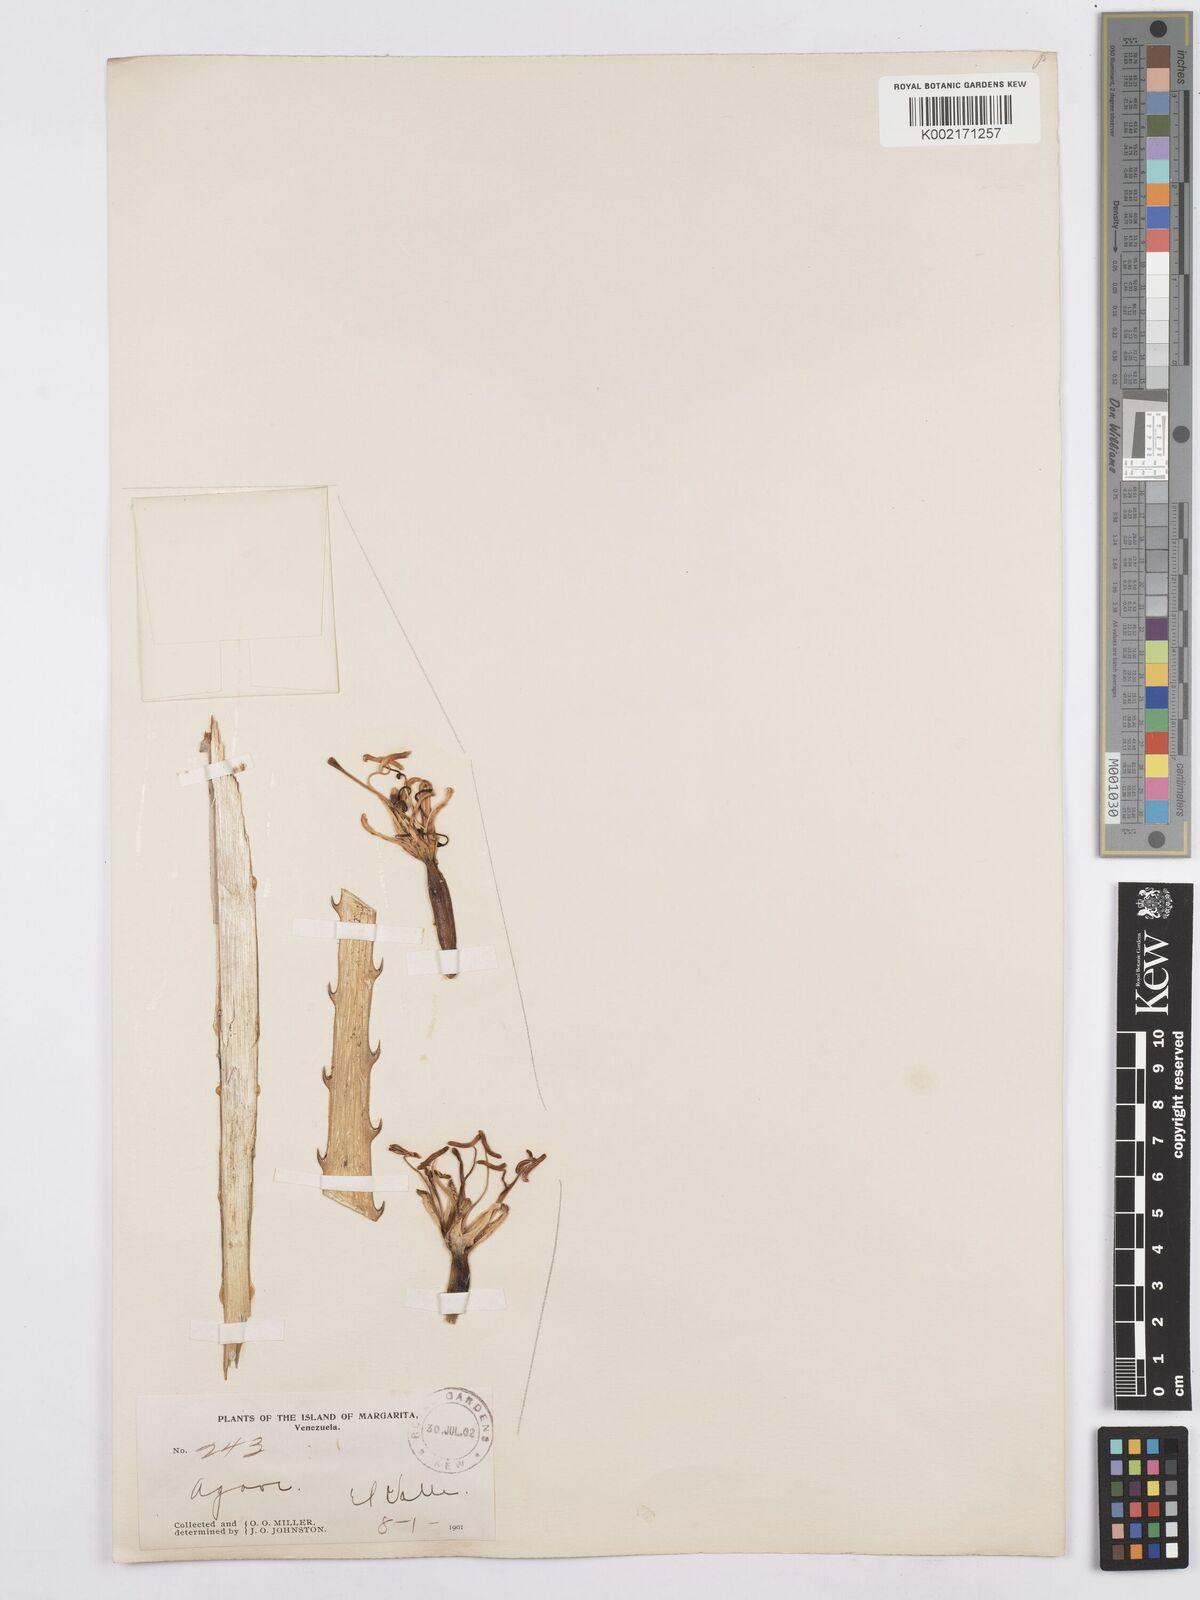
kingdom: Plantae
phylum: Tracheophyta
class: Liliopsida
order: Asparagales
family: Asparagaceae
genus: Agave
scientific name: Agave
